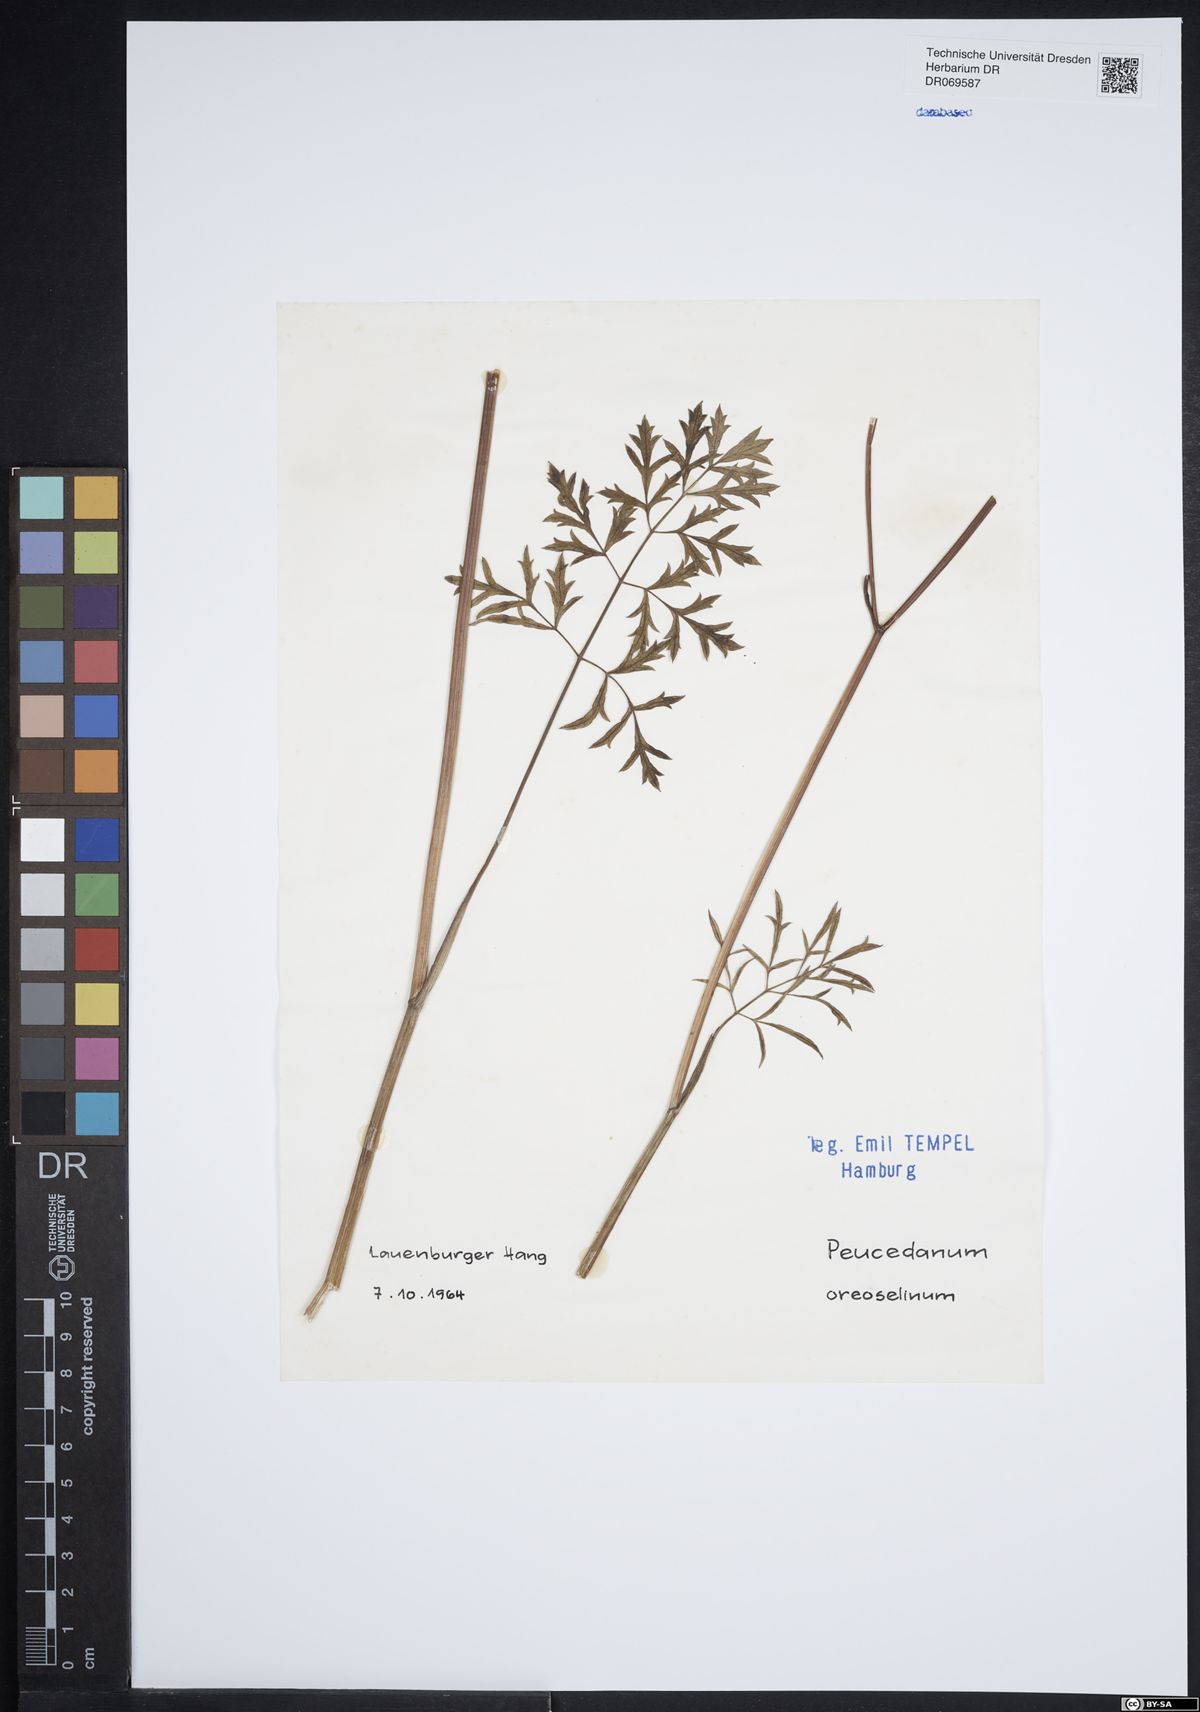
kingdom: Plantae
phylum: Tracheophyta
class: Magnoliopsida
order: Apiales
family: Apiaceae
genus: Oreoselinum
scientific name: Oreoselinum nigrum
